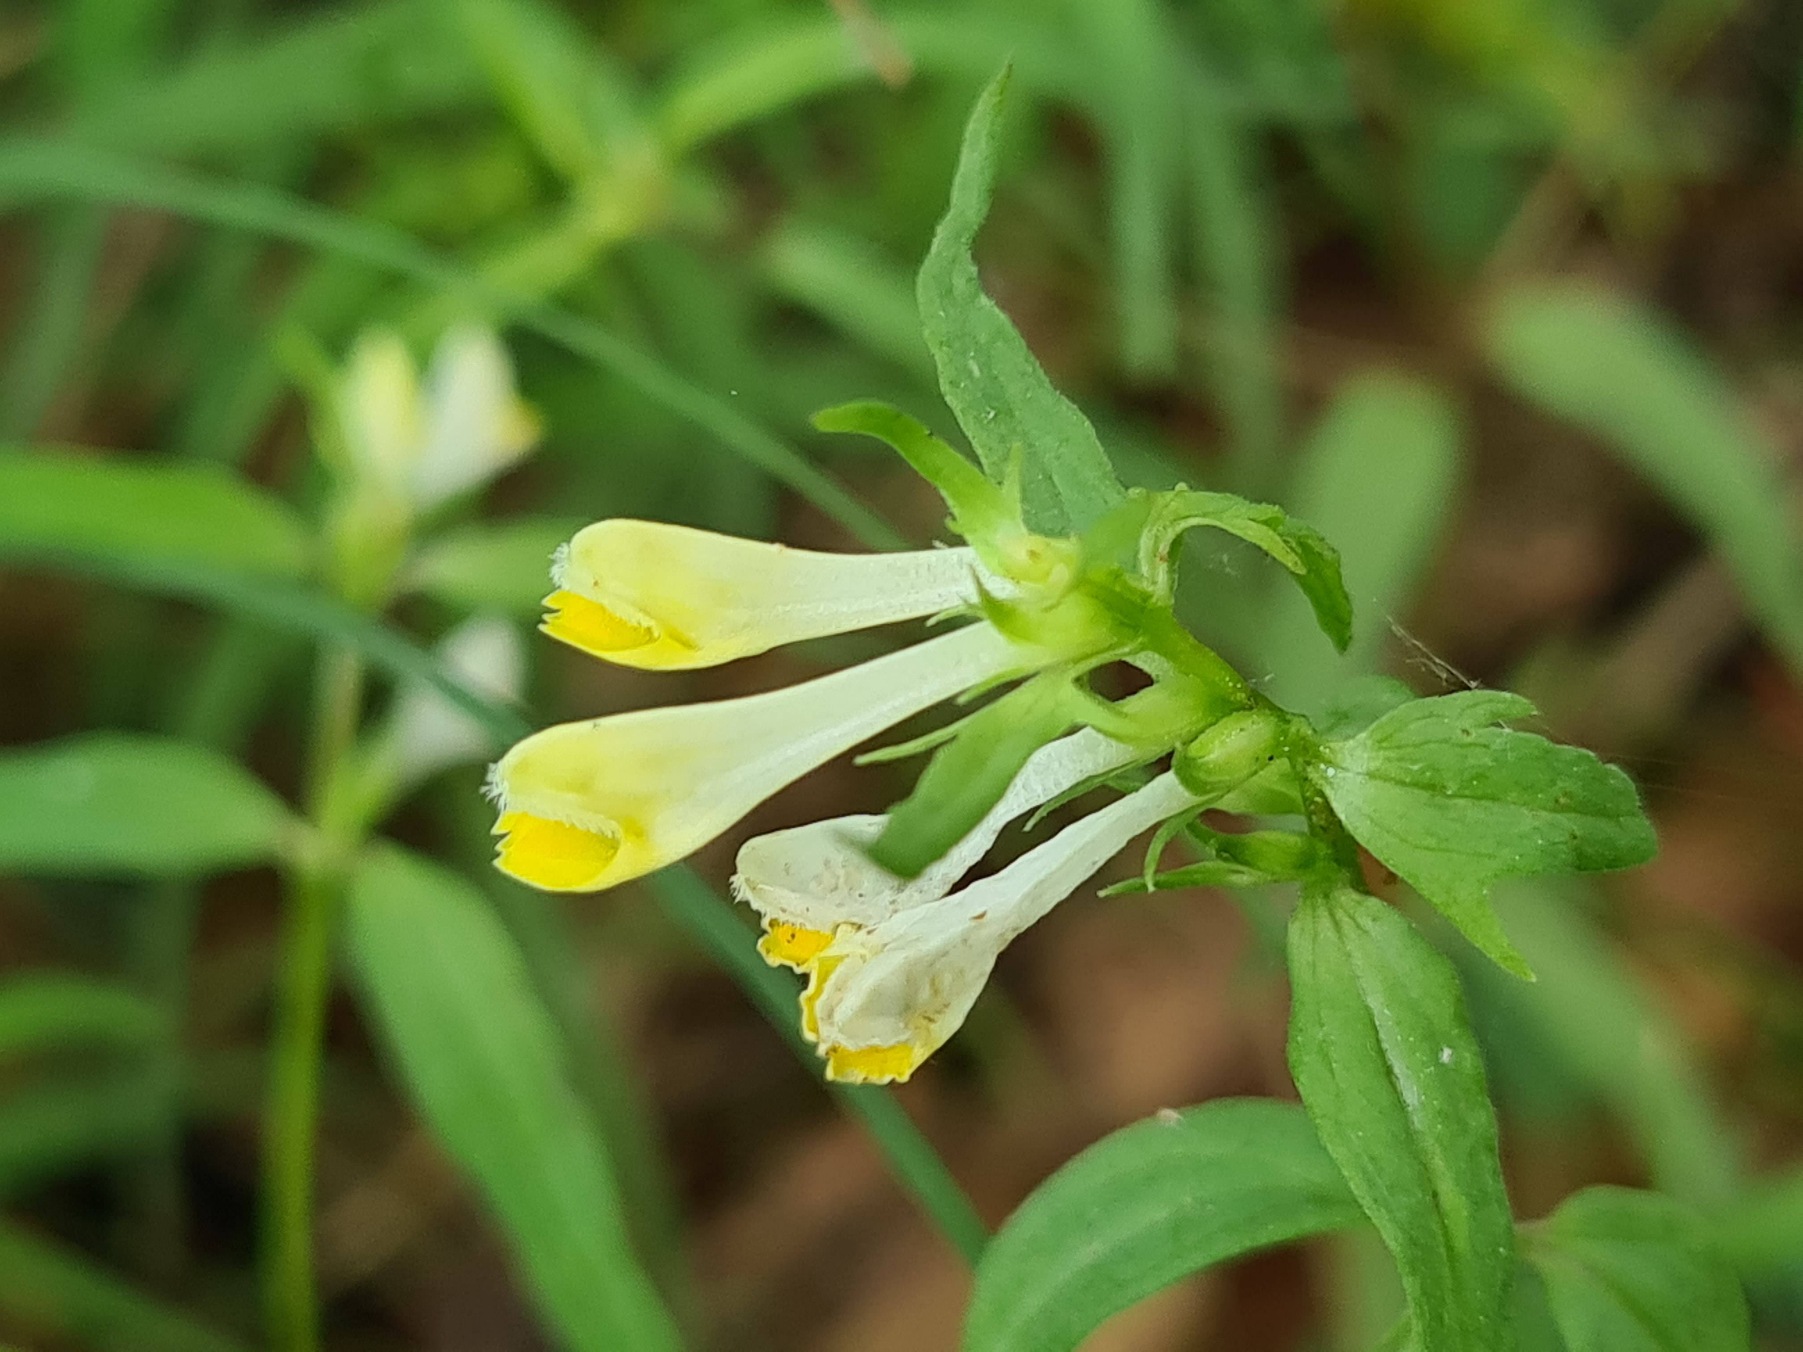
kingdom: Plantae
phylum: Tracheophyta
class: Magnoliopsida
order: Lamiales
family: Orobanchaceae
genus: Melampyrum
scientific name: Melampyrum pratense
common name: Almindelig kohvede
